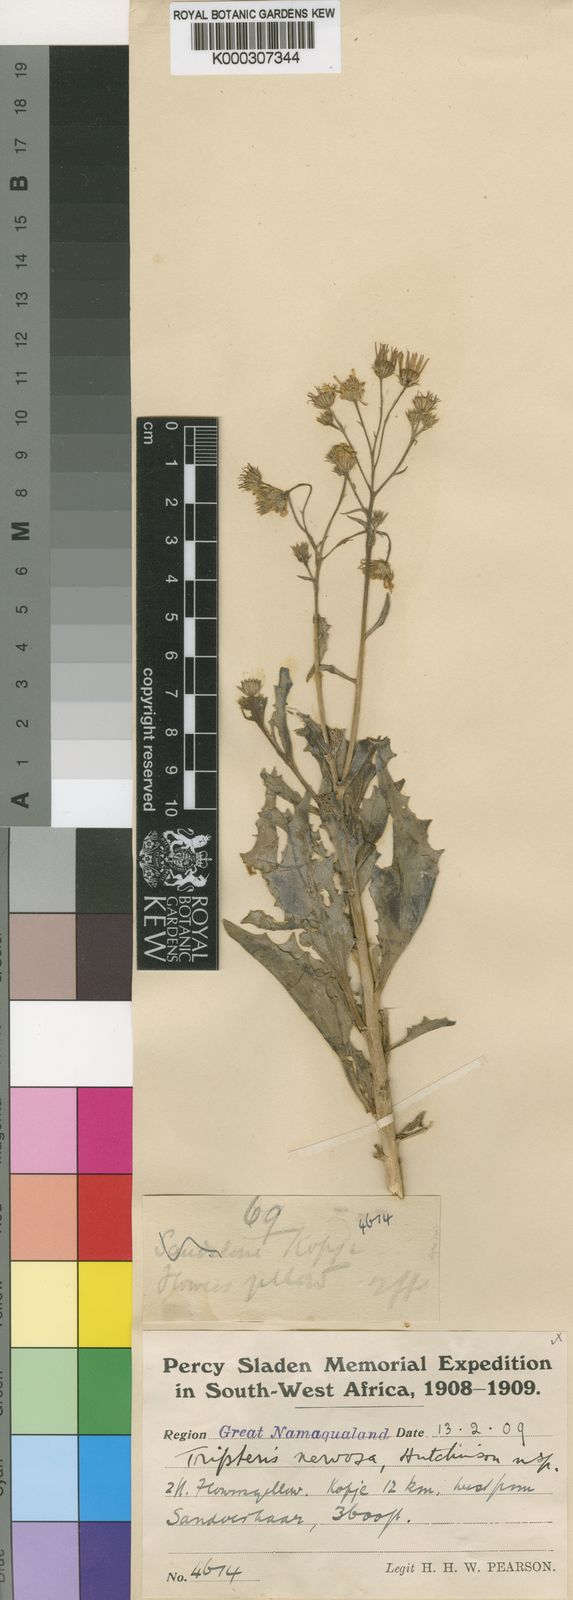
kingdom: Plantae
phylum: Tracheophyta
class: Magnoliopsida
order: Asterales
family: Asteraceae
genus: Osteospermum
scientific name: Osteospermum nervosum
